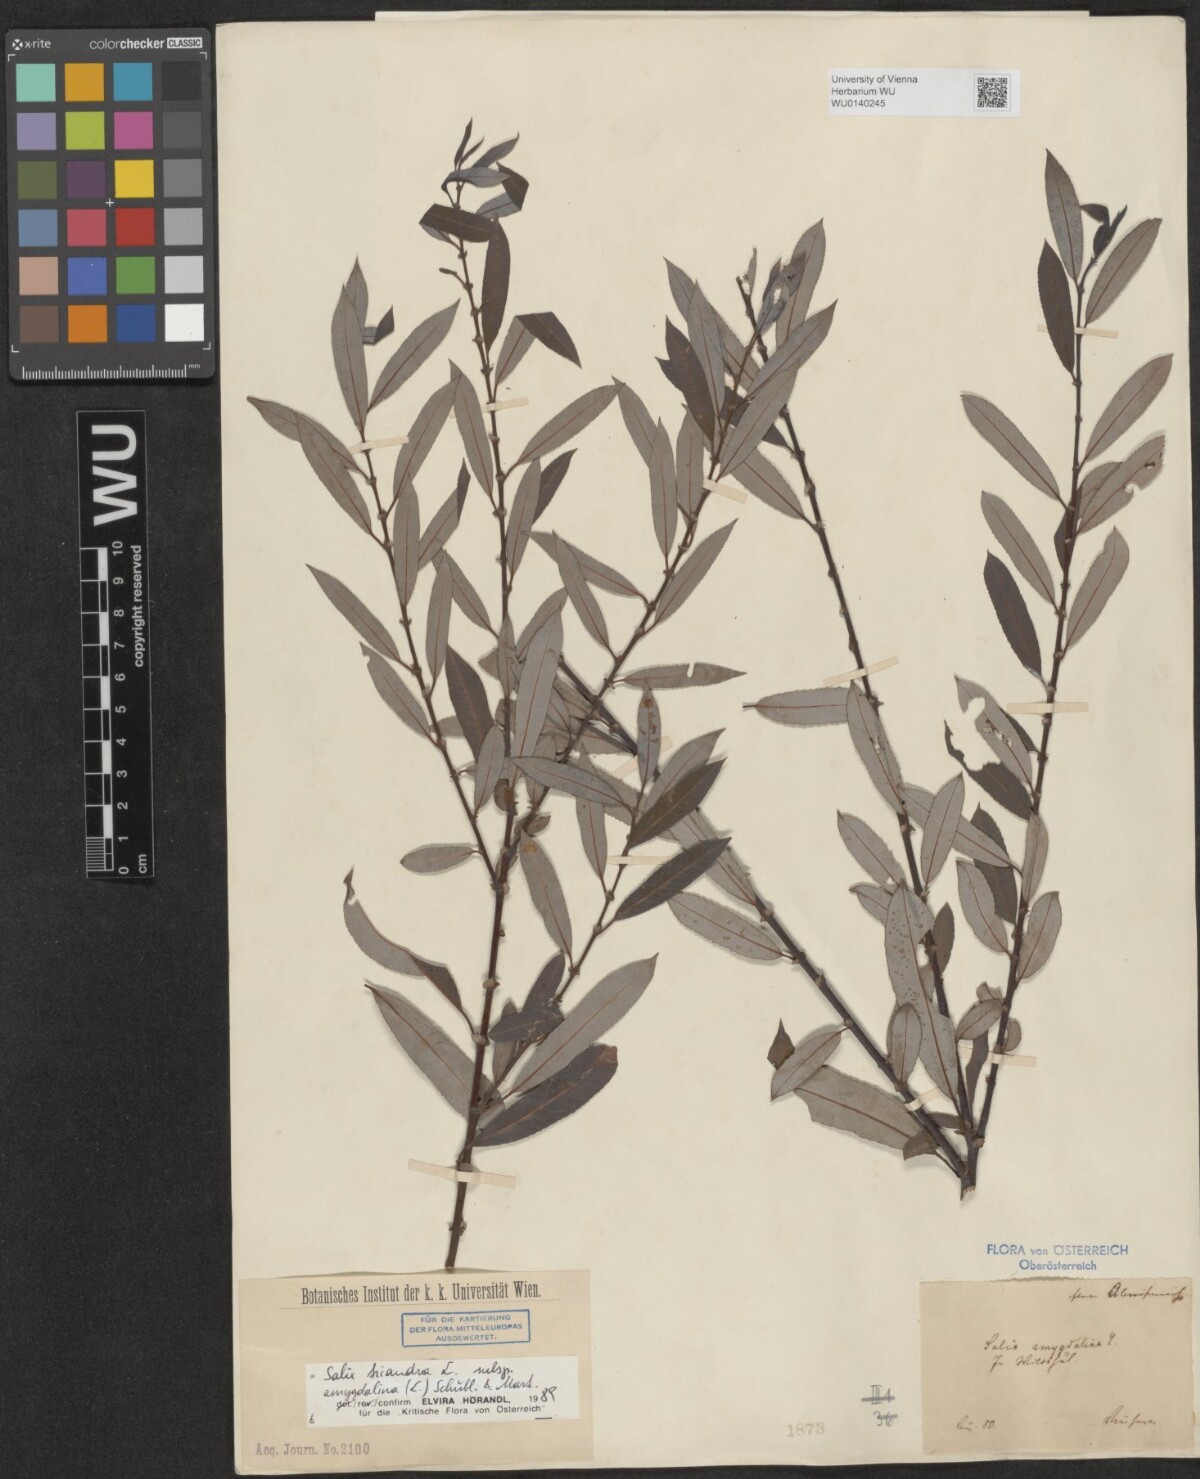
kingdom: Plantae
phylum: Tracheophyta
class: Magnoliopsida
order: Malpighiales
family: Salicaceae
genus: Salix
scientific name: Salix triandra
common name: Almond willow
